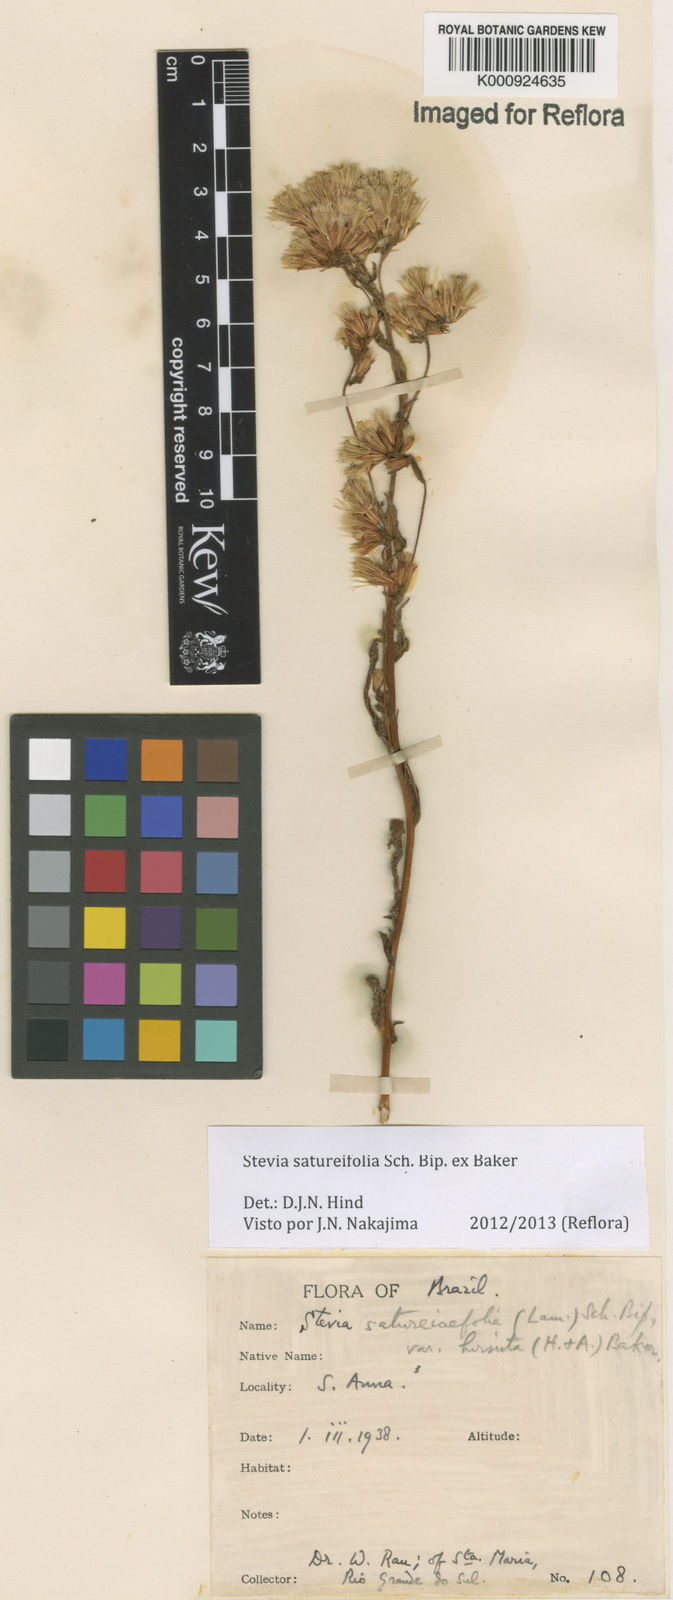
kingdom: Plantae
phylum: Tracheophyta
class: Magnoliopsida
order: Asterales
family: Asteraceae
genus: Stevia
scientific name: Stevia satureifolia
